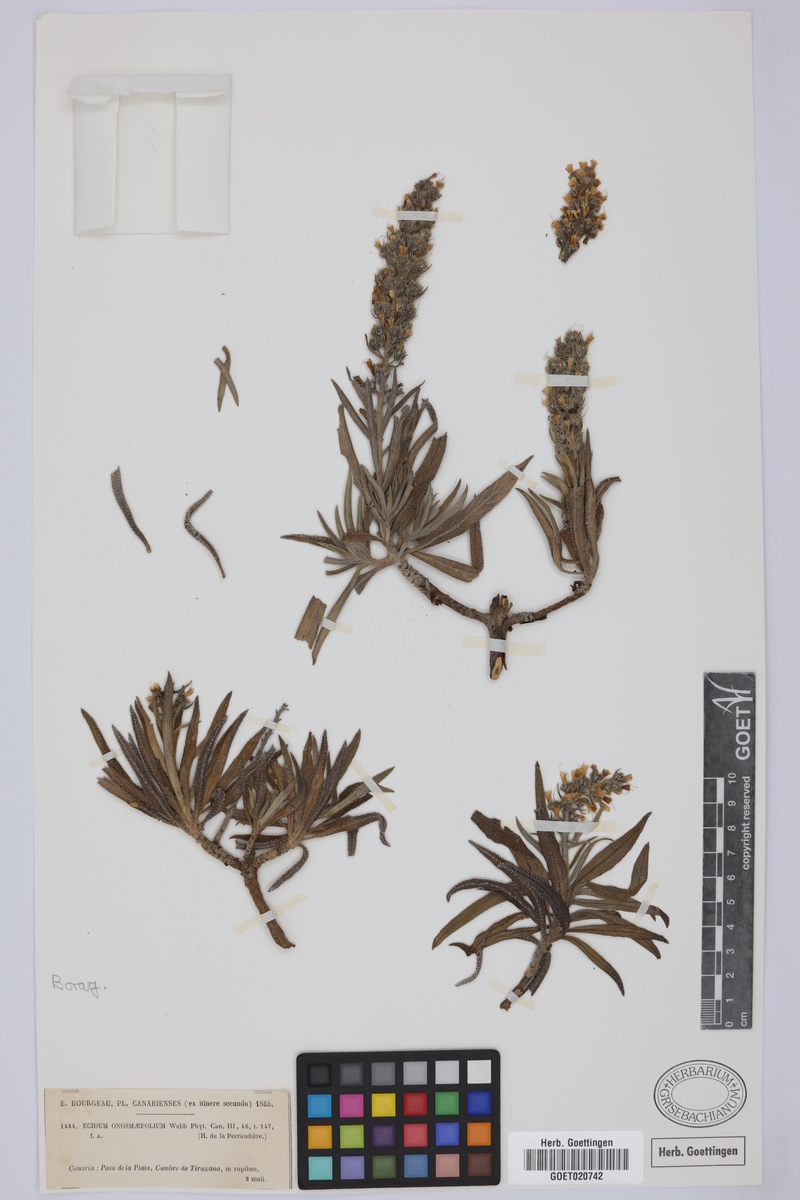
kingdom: Plantae
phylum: Tracheophyta
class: Magnoliopsida
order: Boraginales
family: Boraginaceae
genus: Echium
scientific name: Echium onosmifolium
